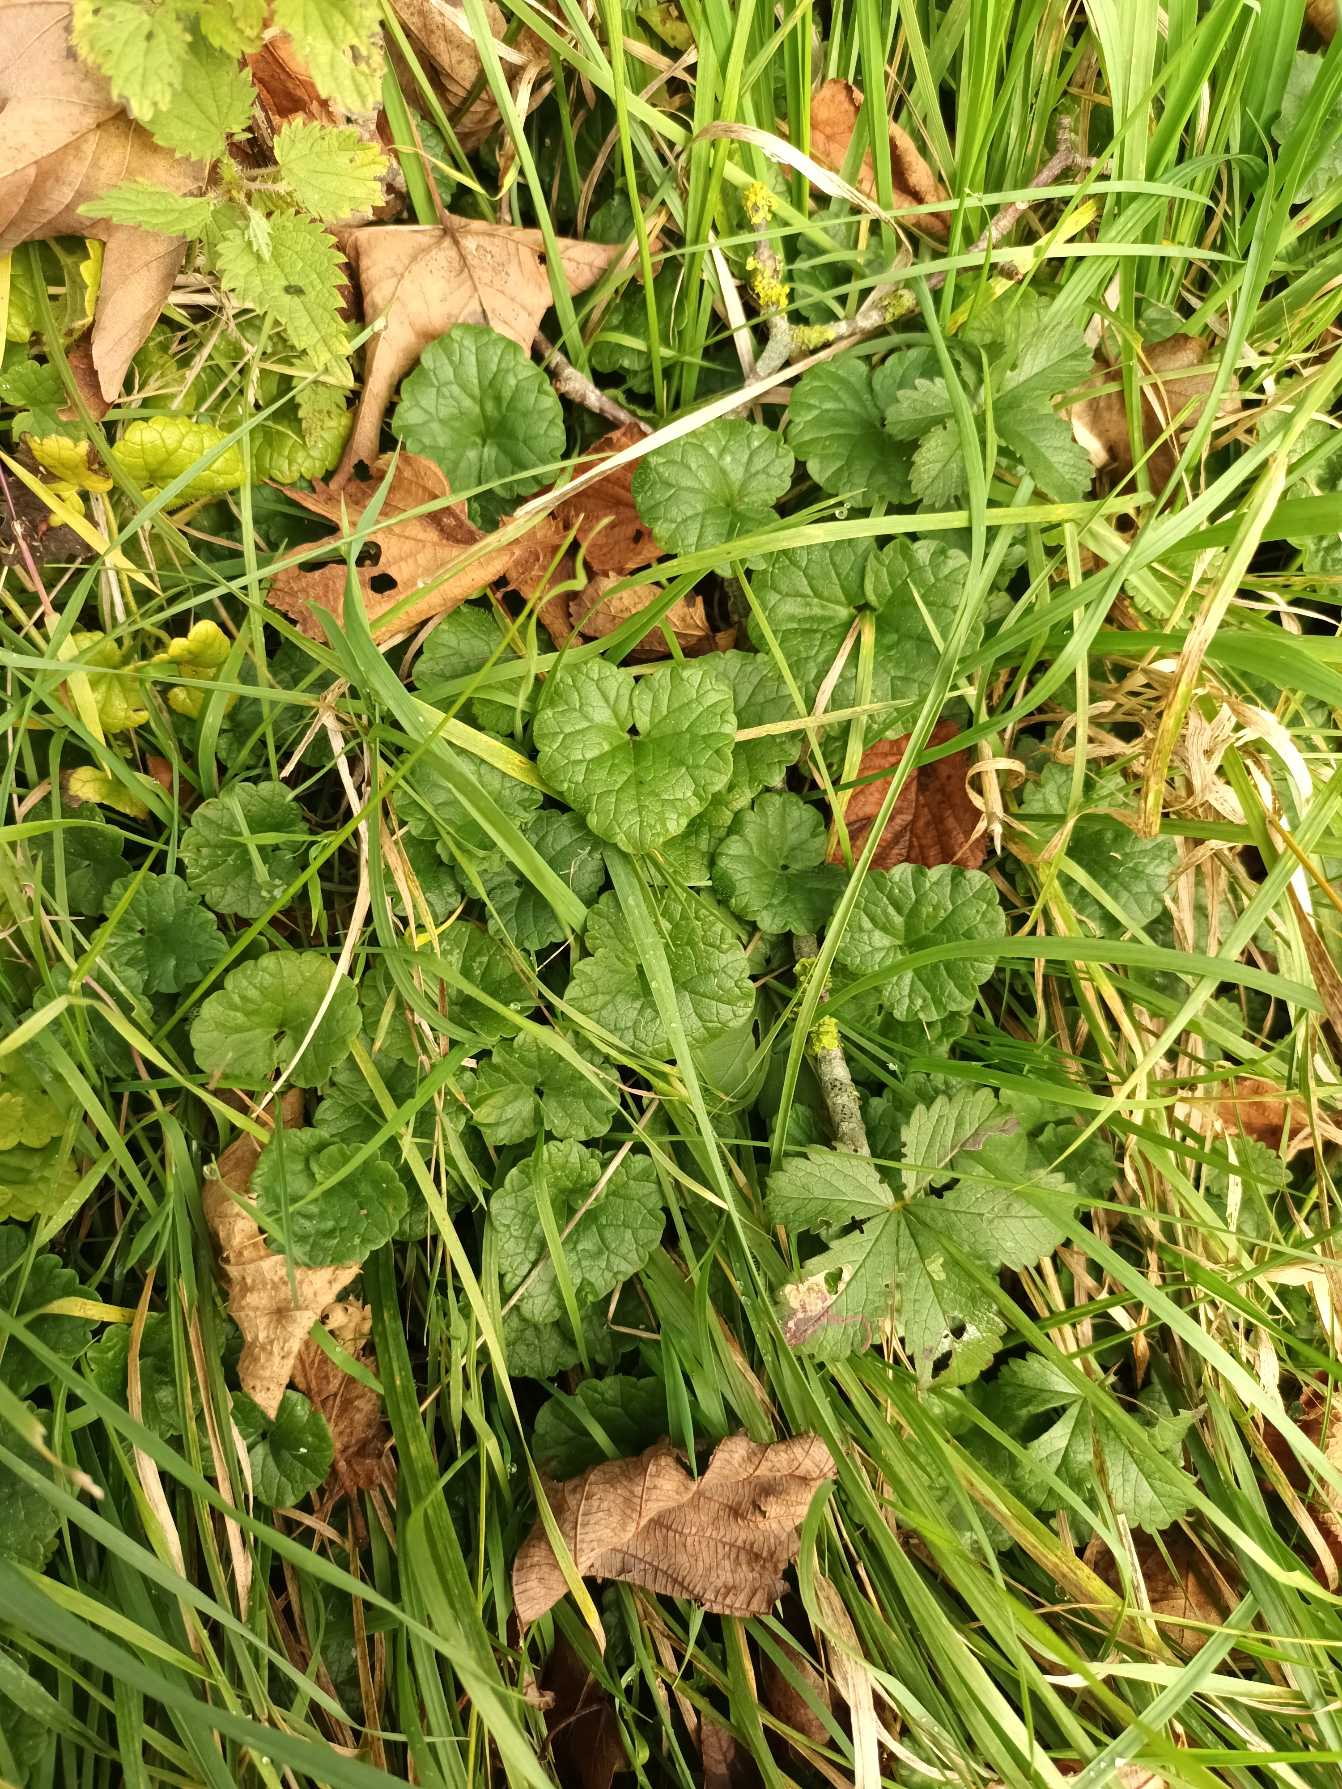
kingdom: Plantae
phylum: Tracheophyta
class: Magnoliopsida
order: Lamiales
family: Lamiaceae
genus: Glechoma
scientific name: Glechoma hederacea
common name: Korsknap
